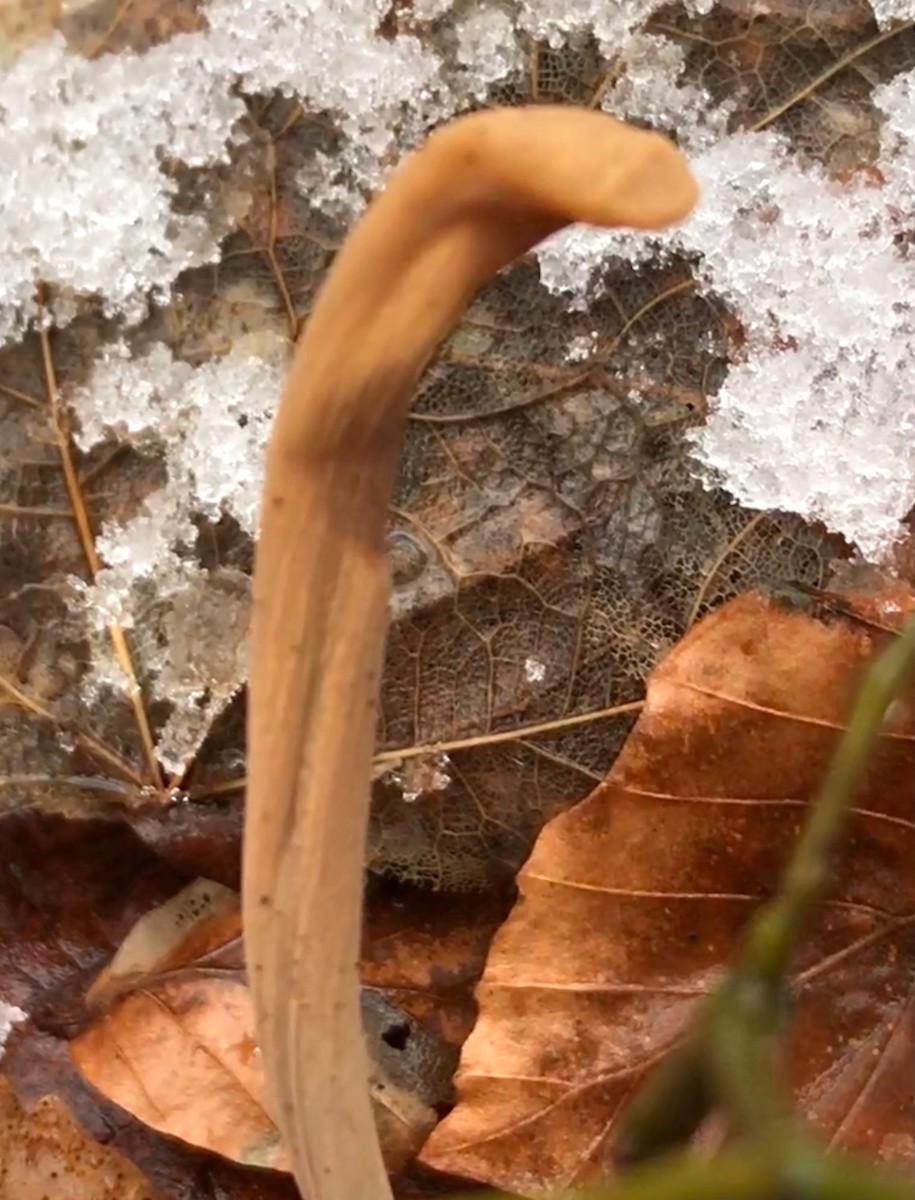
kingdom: Fungi
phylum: Basidiomycota
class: Agaricomycetes
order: Agaricales
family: Typhulaceae
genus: Typhula
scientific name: Typhula fistulosa
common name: pibet rørkølle
